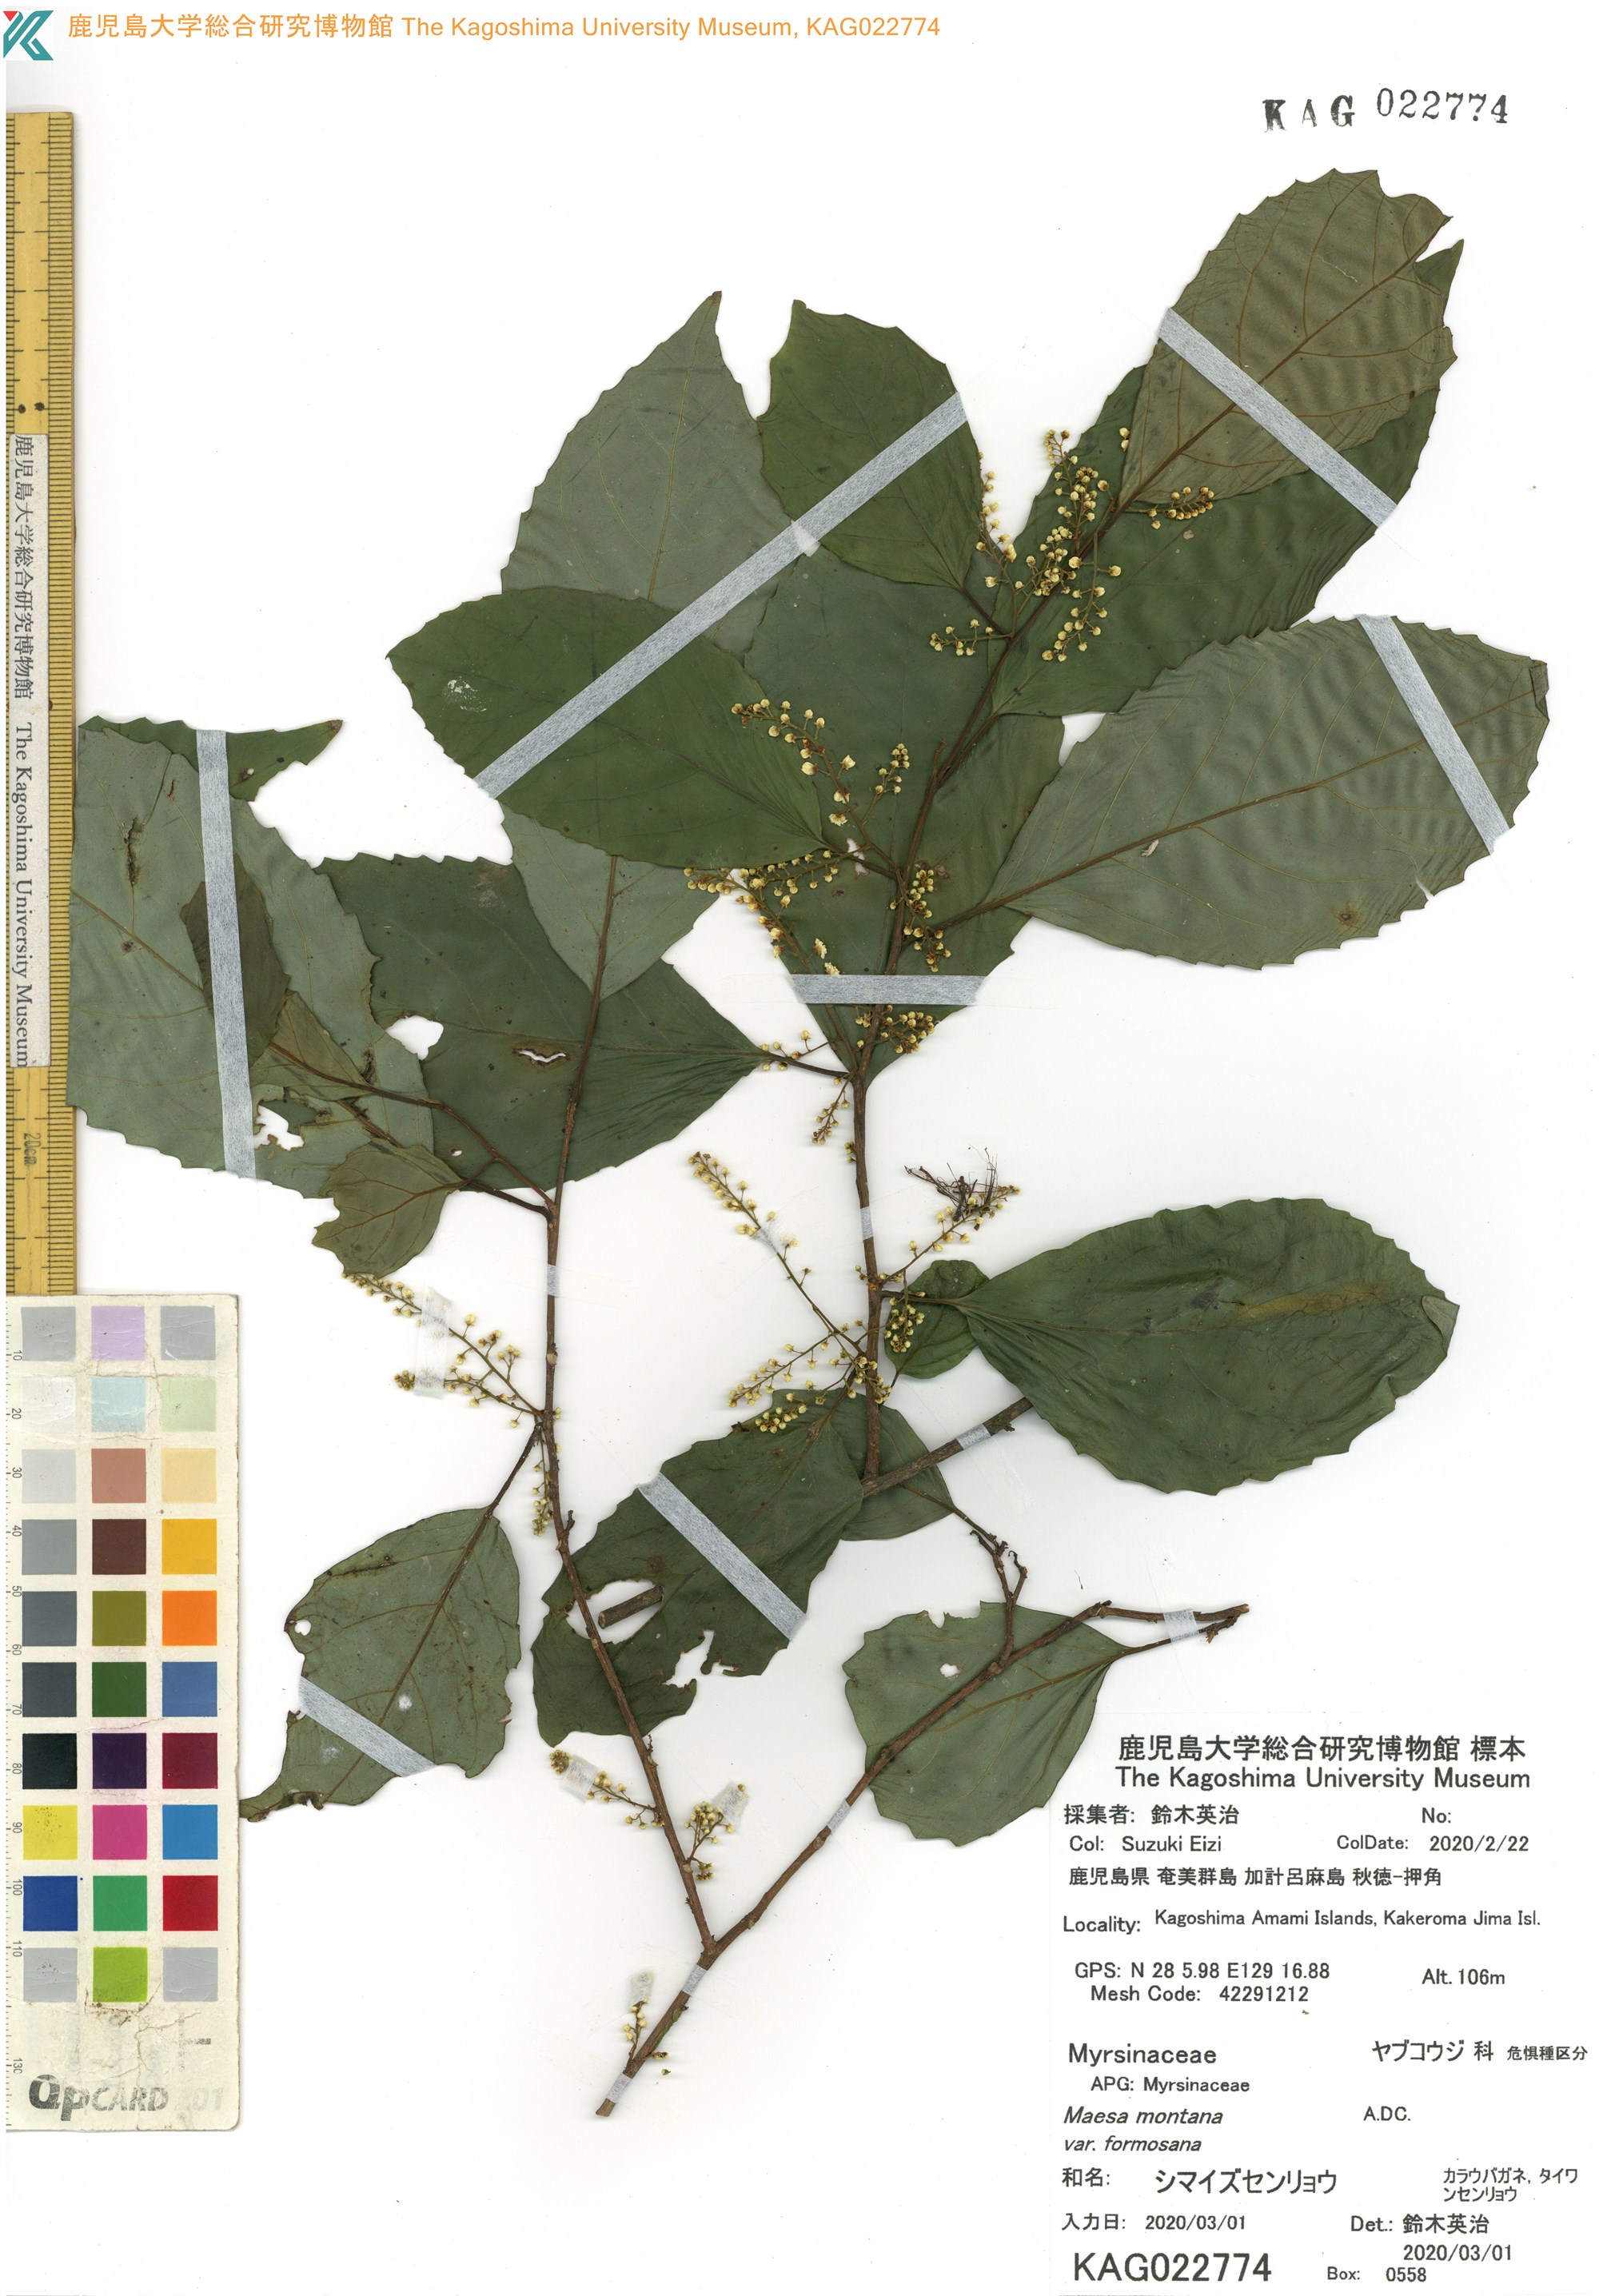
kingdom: Plantae
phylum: Tracheophyta
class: Magnoliopsida
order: Ericales
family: Primulaceae
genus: Maesa
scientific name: Maesa perlaria
